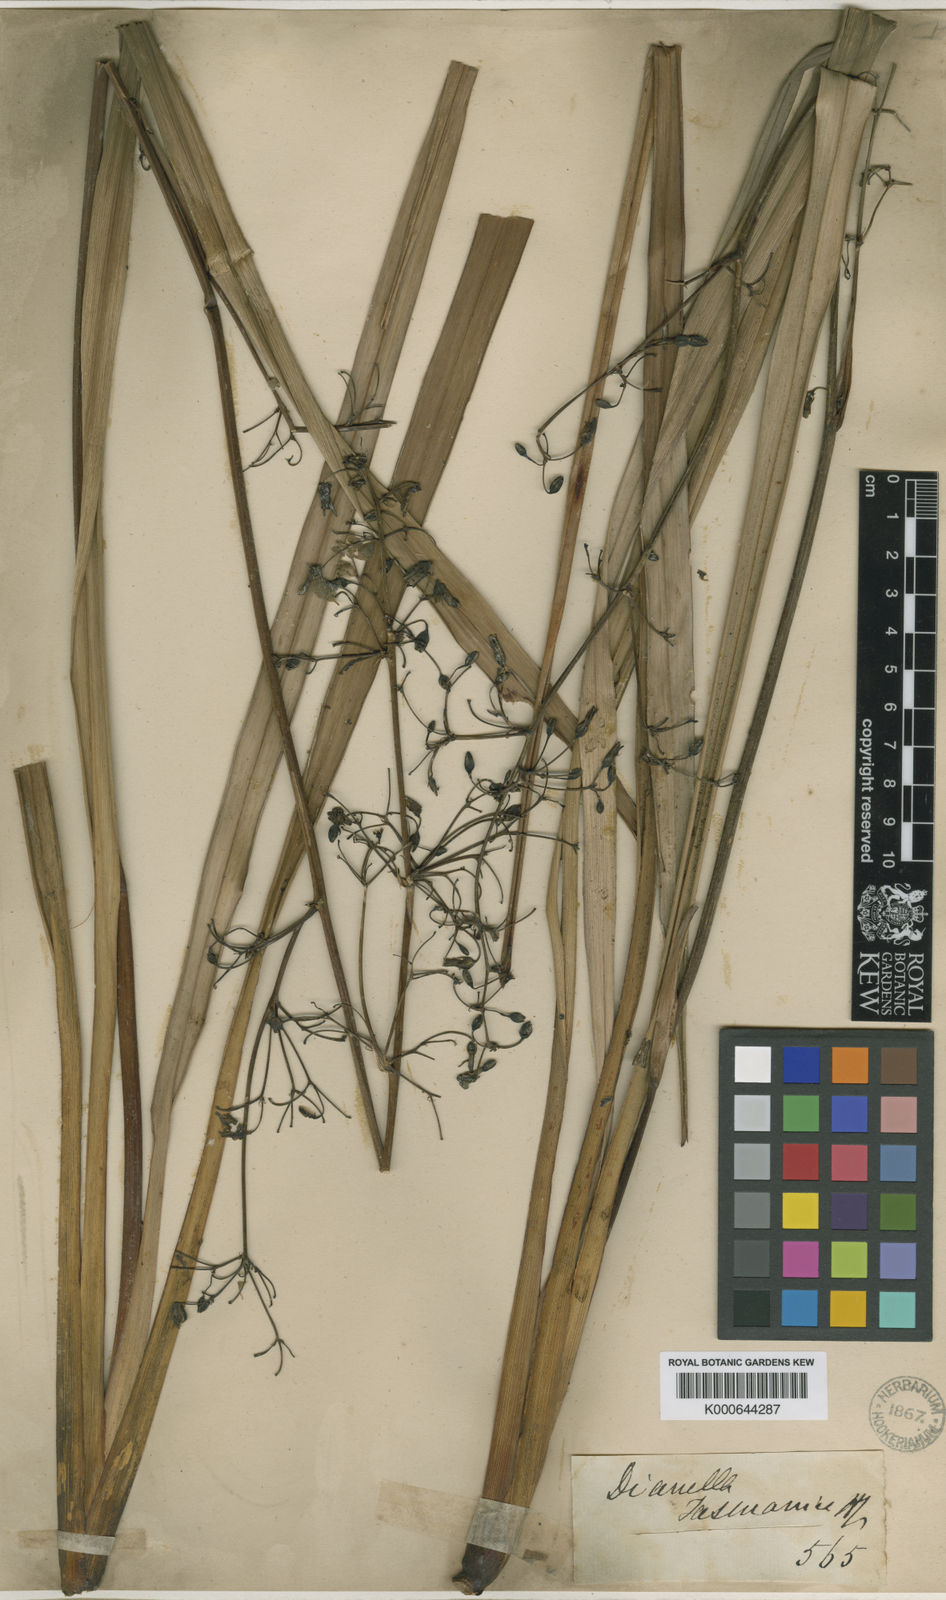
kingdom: Plantae
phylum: Tracheophyta
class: Liliopsida
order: Asparagales
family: Asphodelaceae
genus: Dianella
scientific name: Dianella tasmanica
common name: Tasman flax-lily
